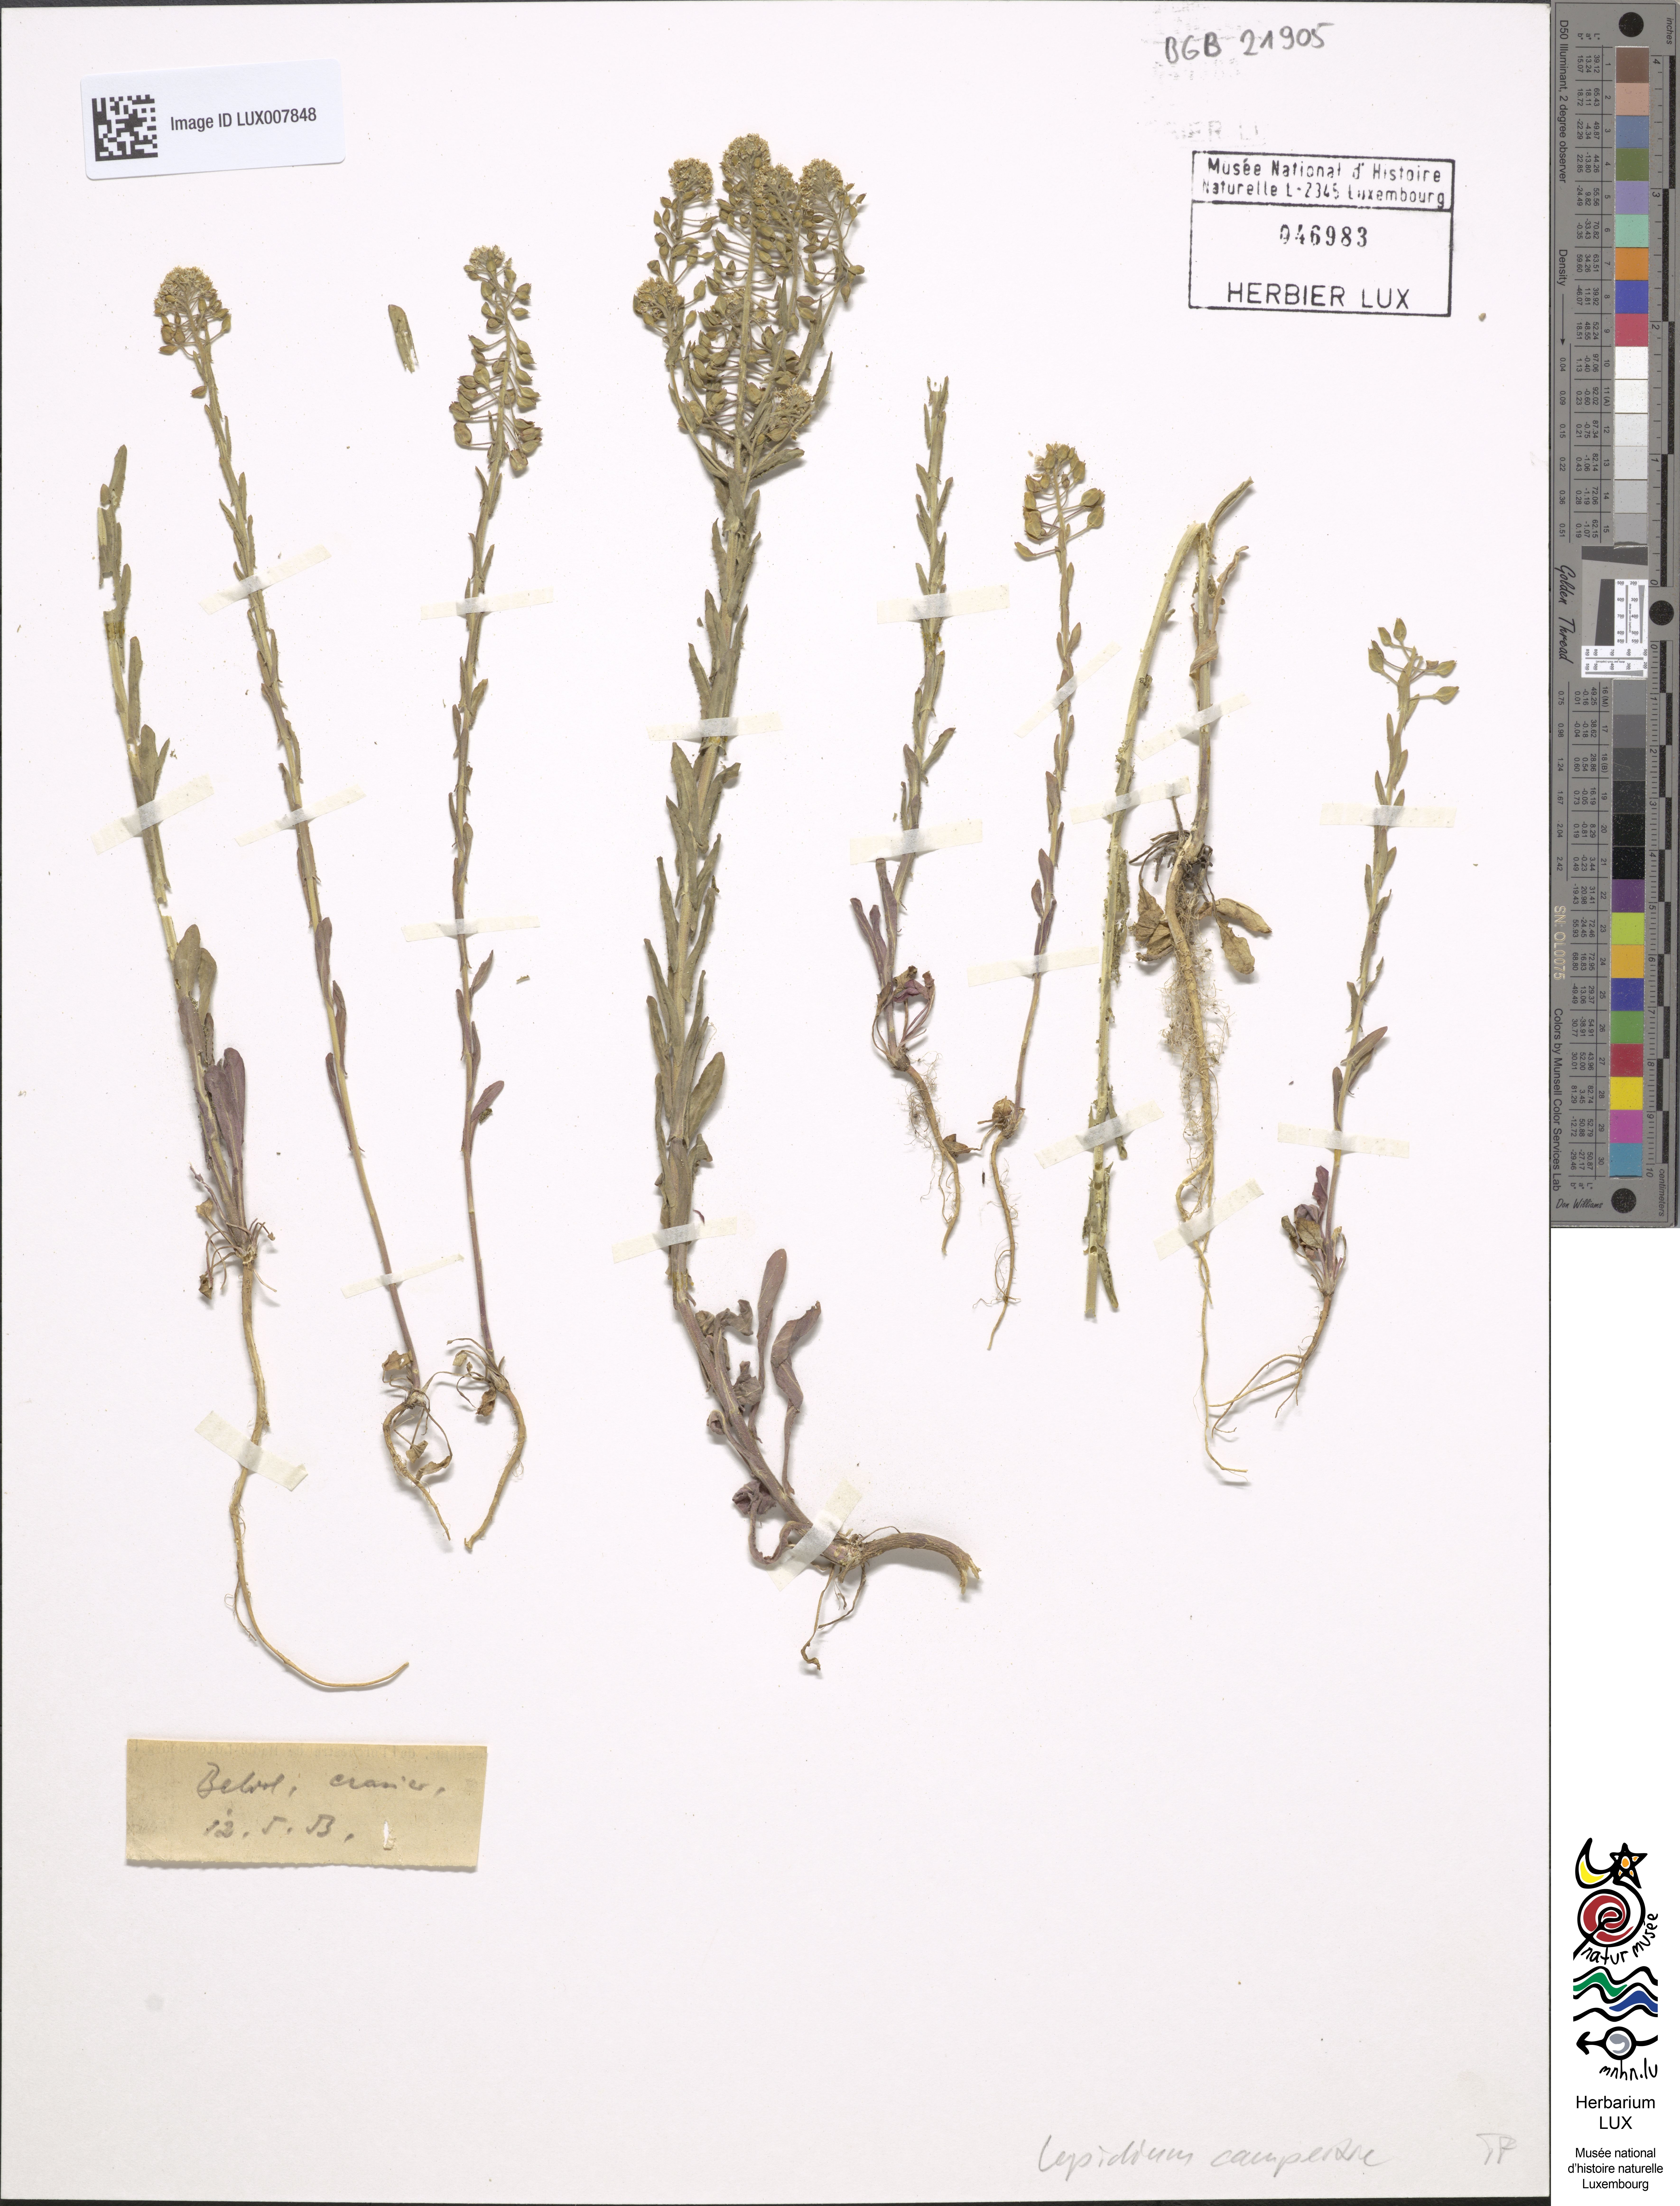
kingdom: Plantae
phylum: Tracheophyta
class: Magnoliopsida
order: Brassicales
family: Brassicaceae
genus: Lepidium
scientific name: Lepidium campestre
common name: Field pepperwort
